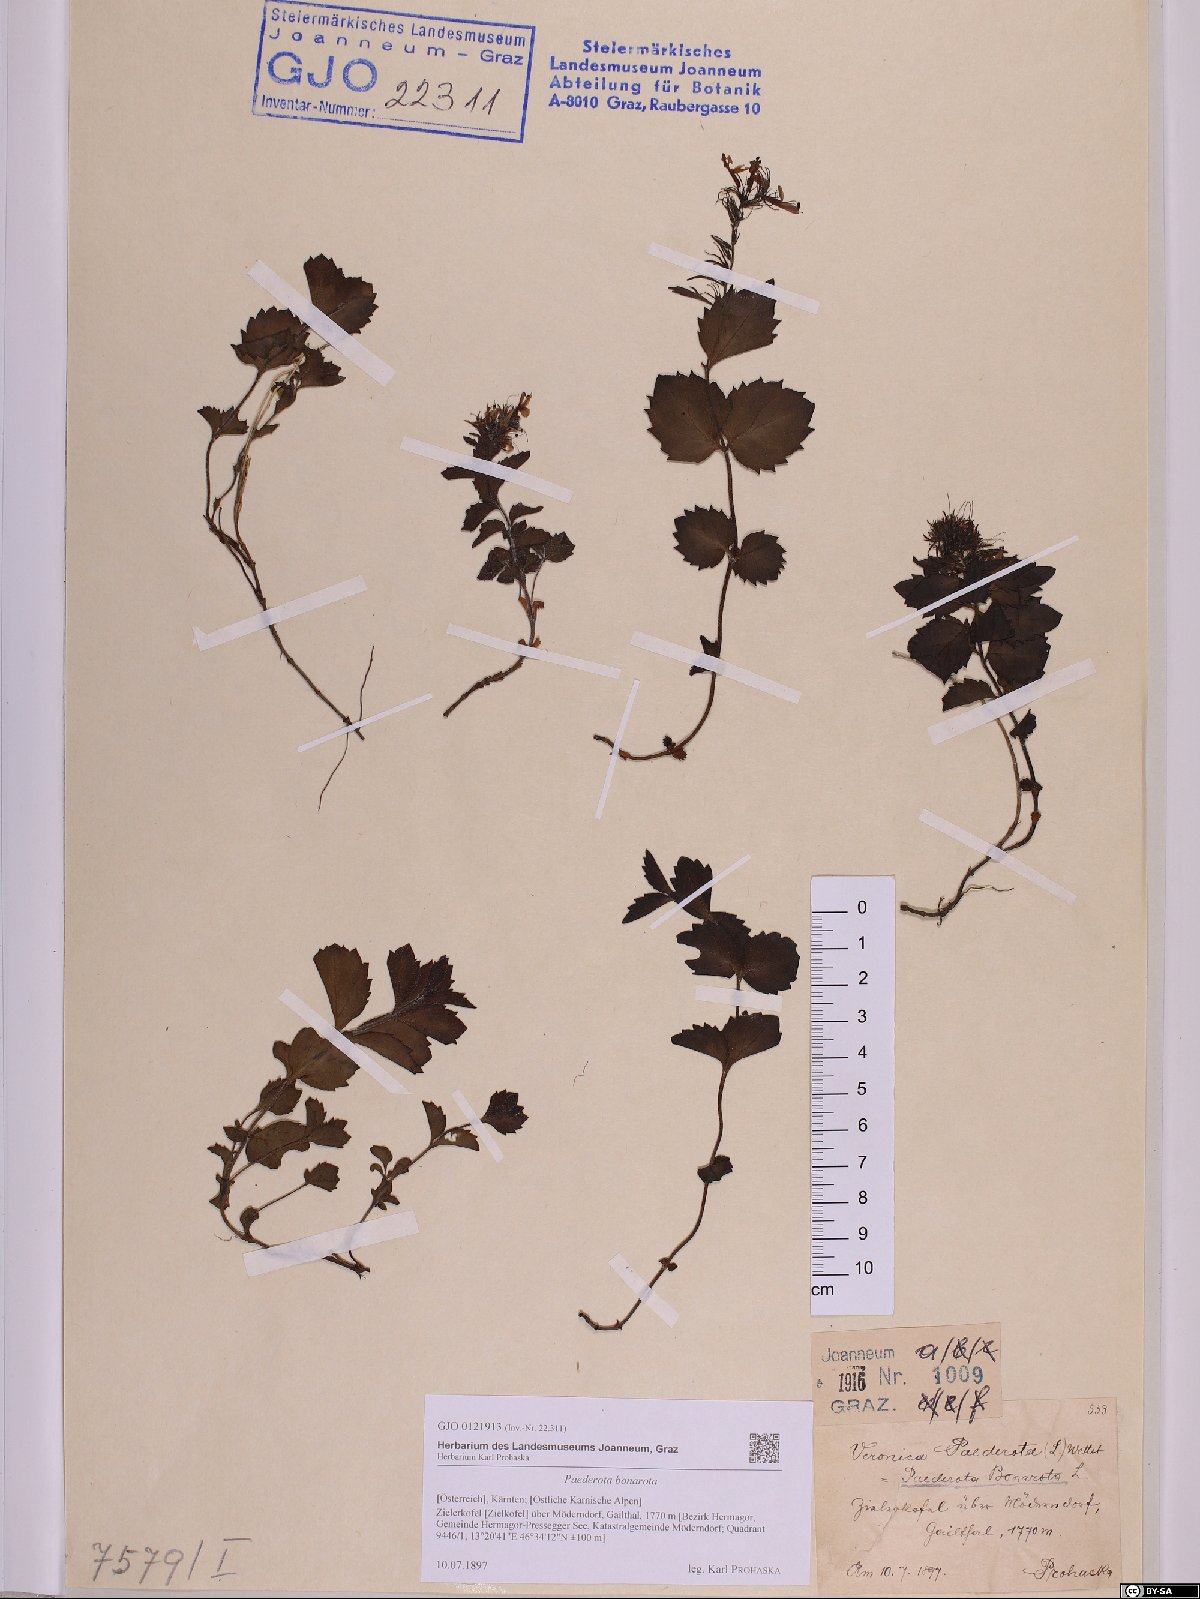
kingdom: Plantae
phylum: Tracheophyta
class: Magnoliopsida
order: Lamiales
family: Plantaginaceae
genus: Paederota
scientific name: Paederota bonarota
